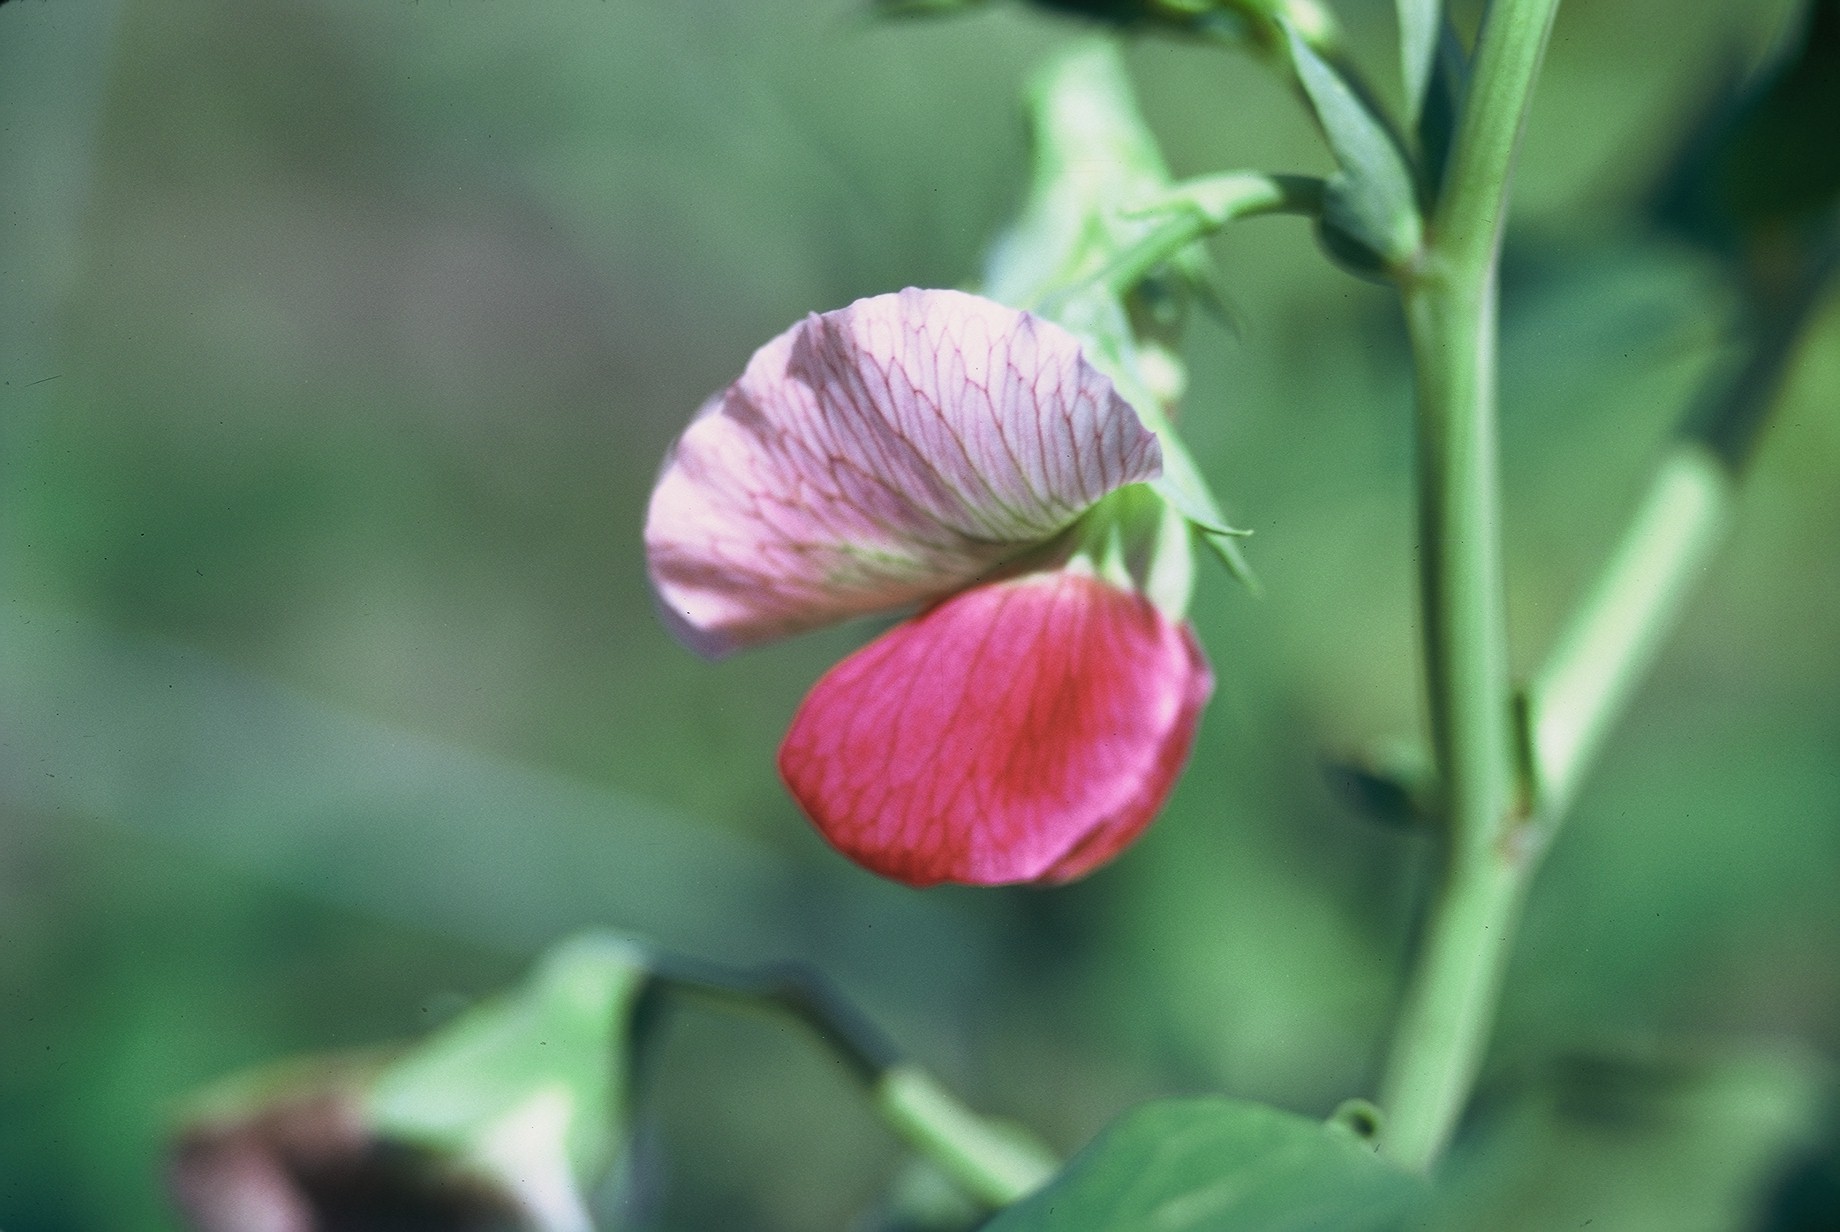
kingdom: Plantae
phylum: Tracheophyta
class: Magnoliopsida
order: Fabales
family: Fabaceae
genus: Lathyrus
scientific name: Lathyrus oleraceus
